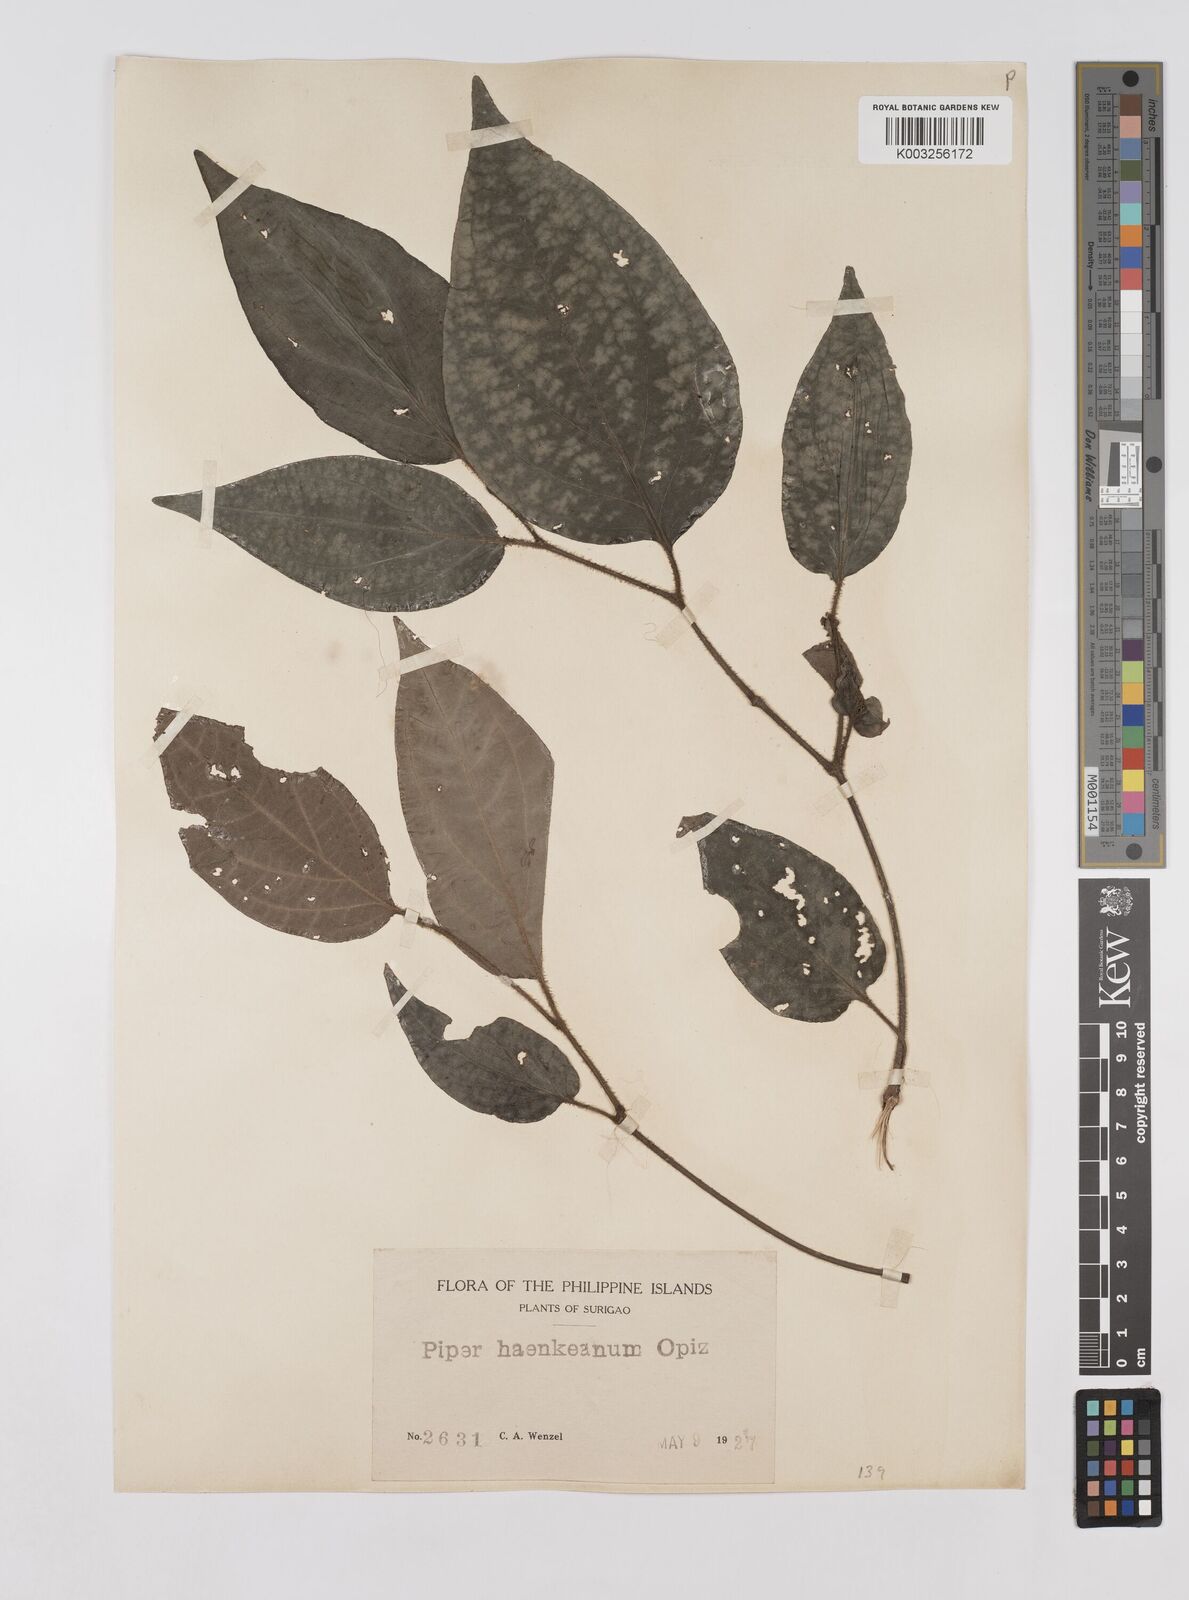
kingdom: Plantae
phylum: Tracheophyta
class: Magnoliopsida
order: Piperales
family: Piperaceae
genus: Piper
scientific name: Piper lanatum
